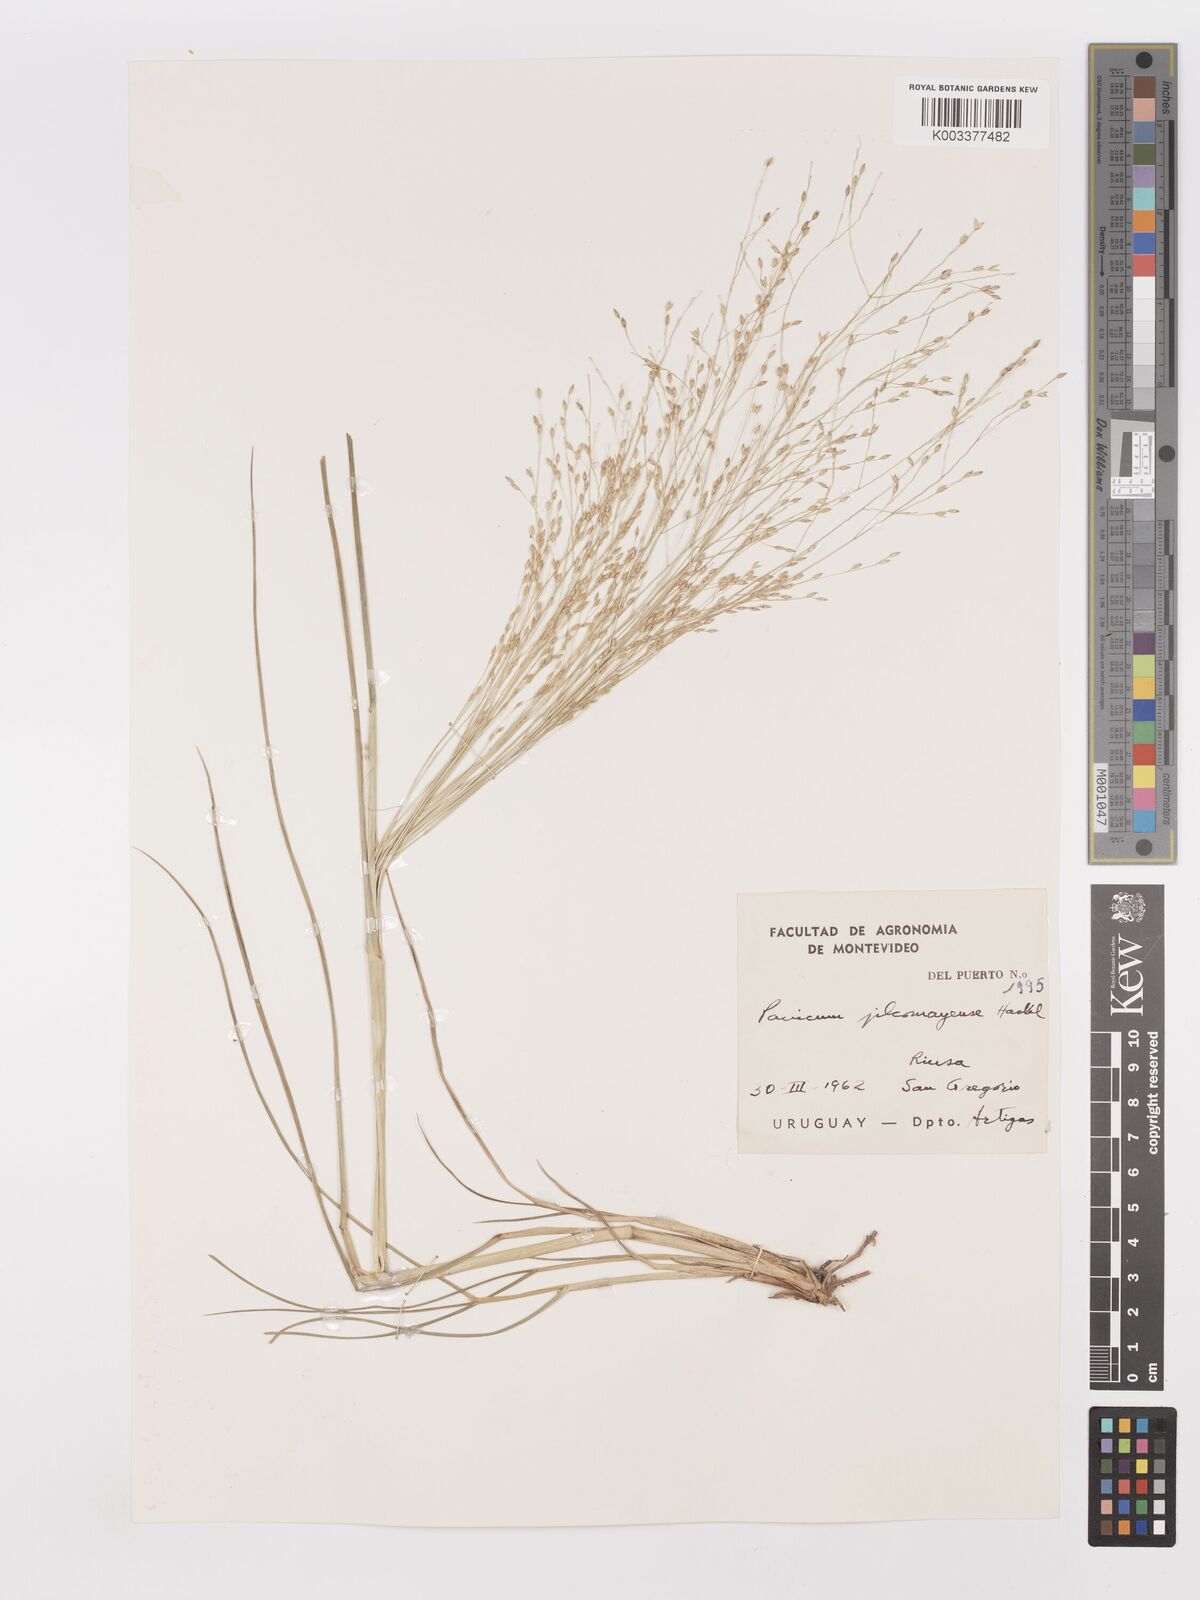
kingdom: Plantae
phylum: Tracheophyta
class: Liliopsida
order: Poales
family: Poaceae
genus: Panicum
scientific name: Panicum bergii
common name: Berg's panicgrass
